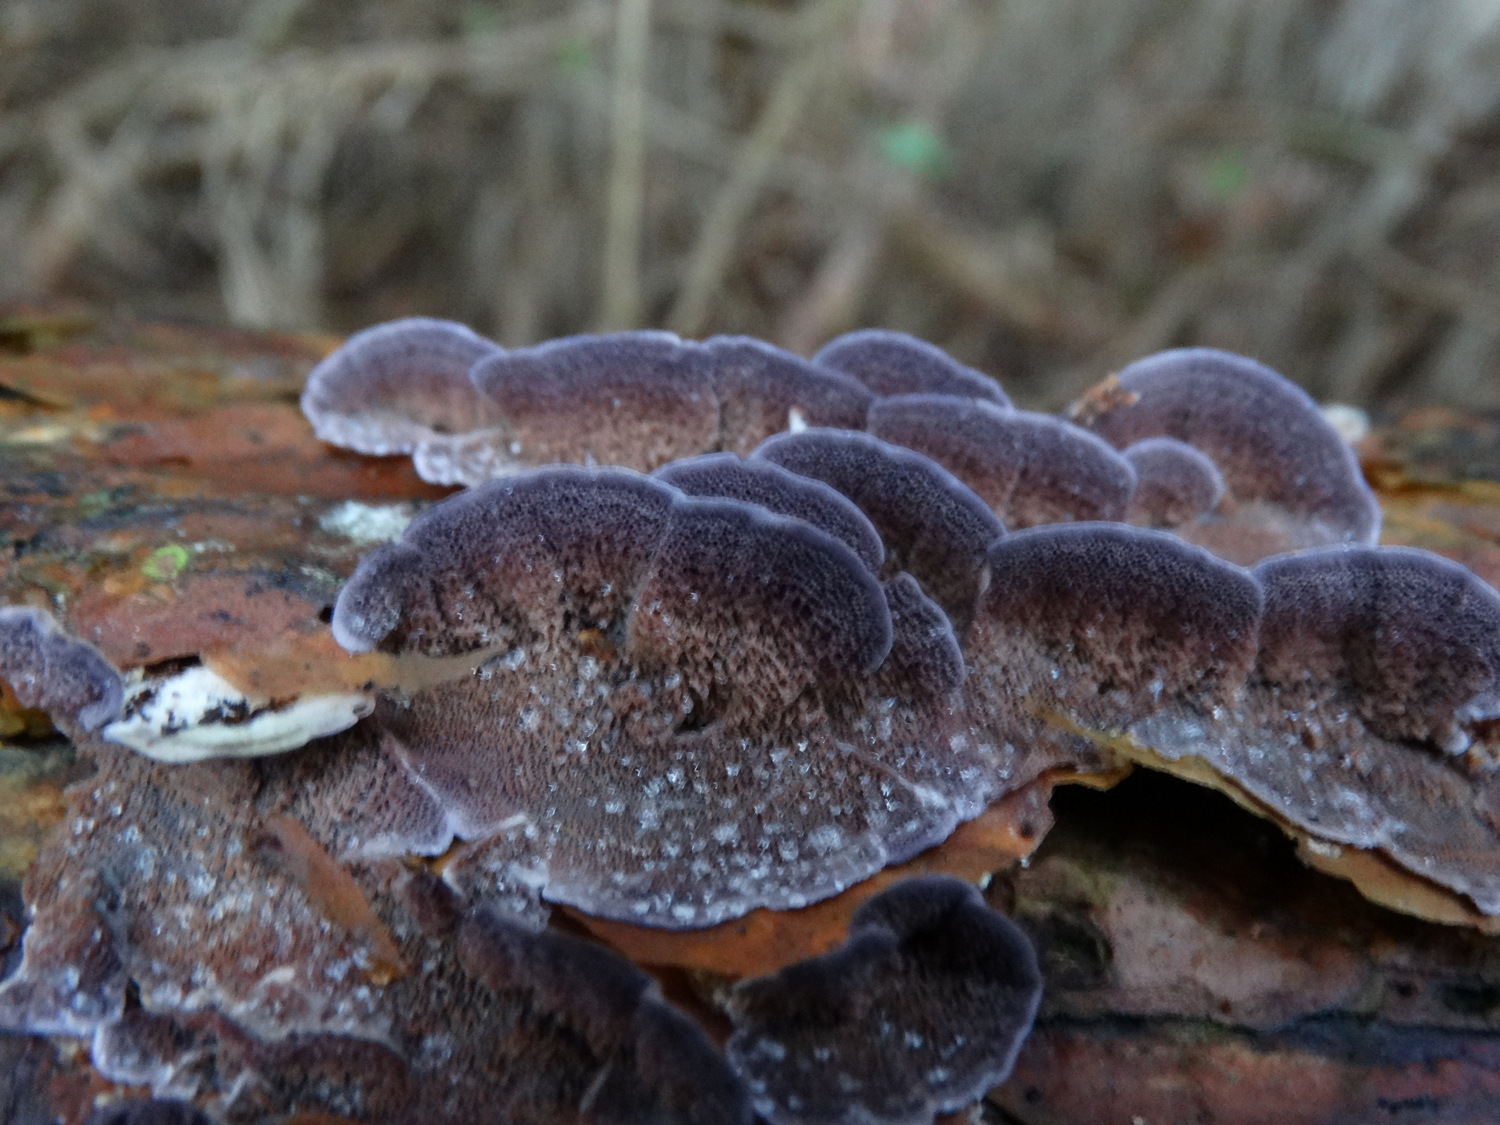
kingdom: Fungi
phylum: Basidiomycota
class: Agaricomycetes
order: Hymenochaetales
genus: Trichaptum
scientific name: Trichaptum abietinum
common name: almindelig violporesvamp
